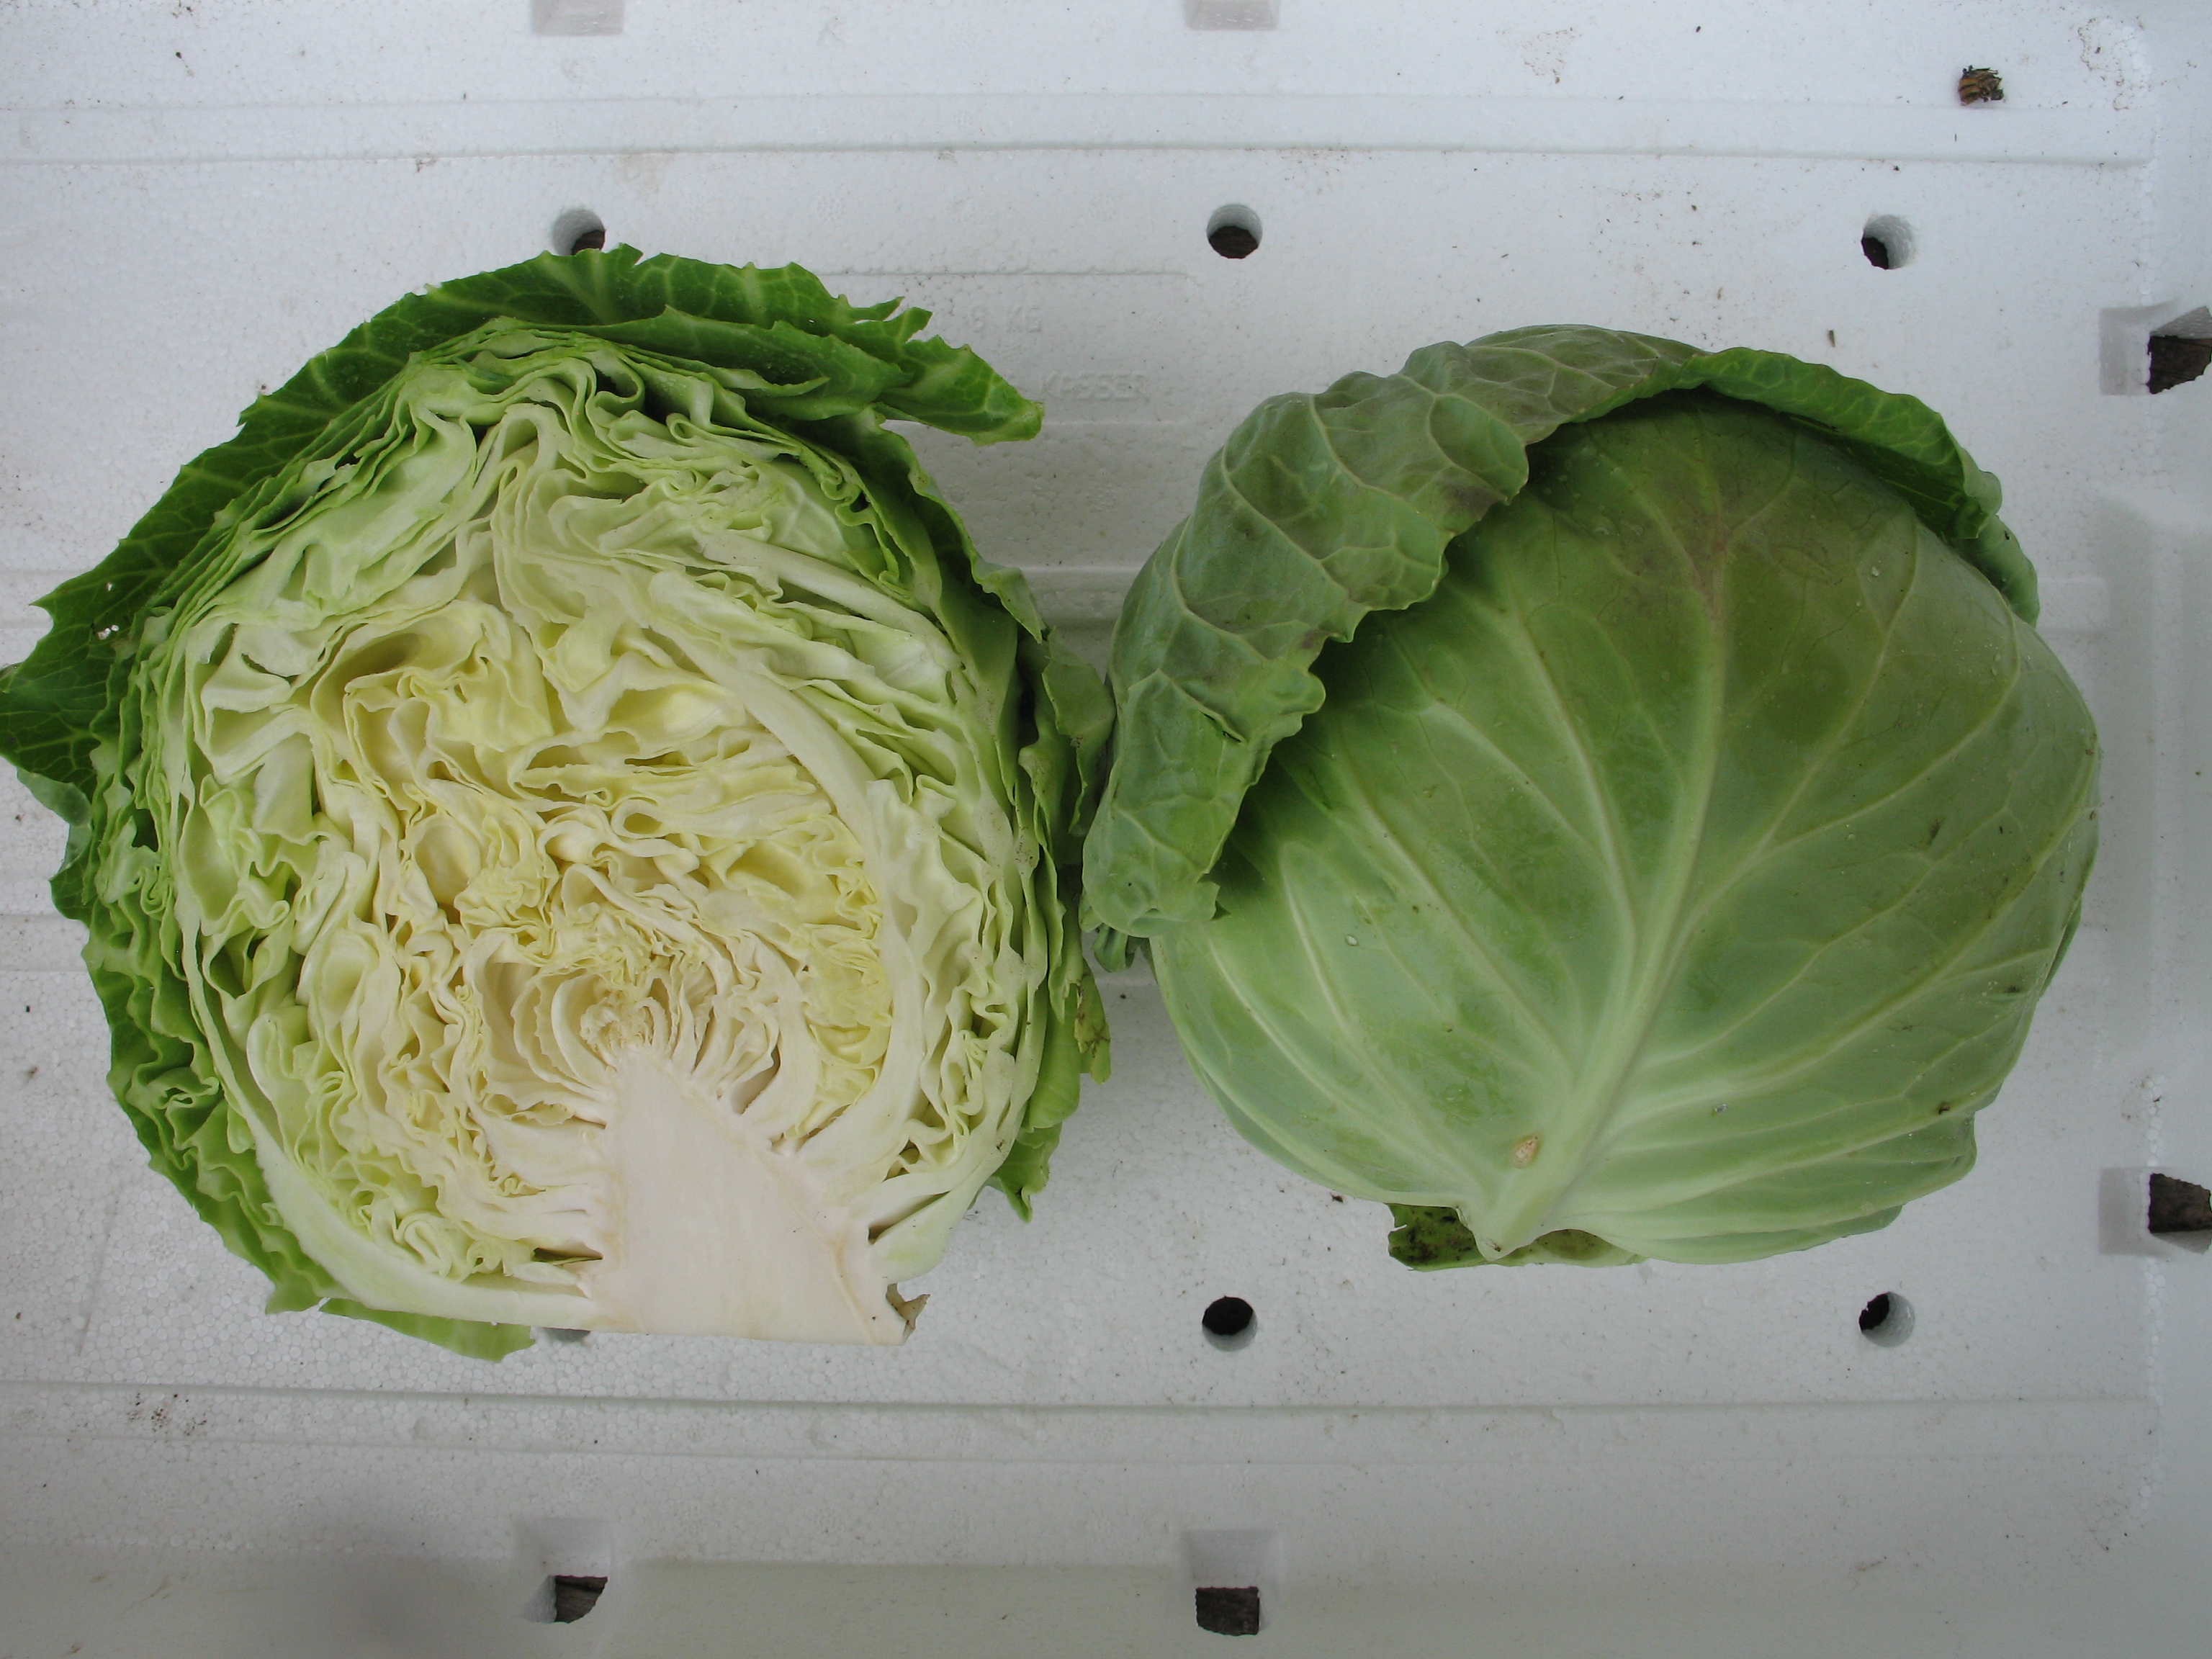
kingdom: Plantae
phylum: Tracheophyta
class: Magnoliopsida
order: Brassicales
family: Brassicaceae
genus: Brassica
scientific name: Brassica oleracea
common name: Cabbage
